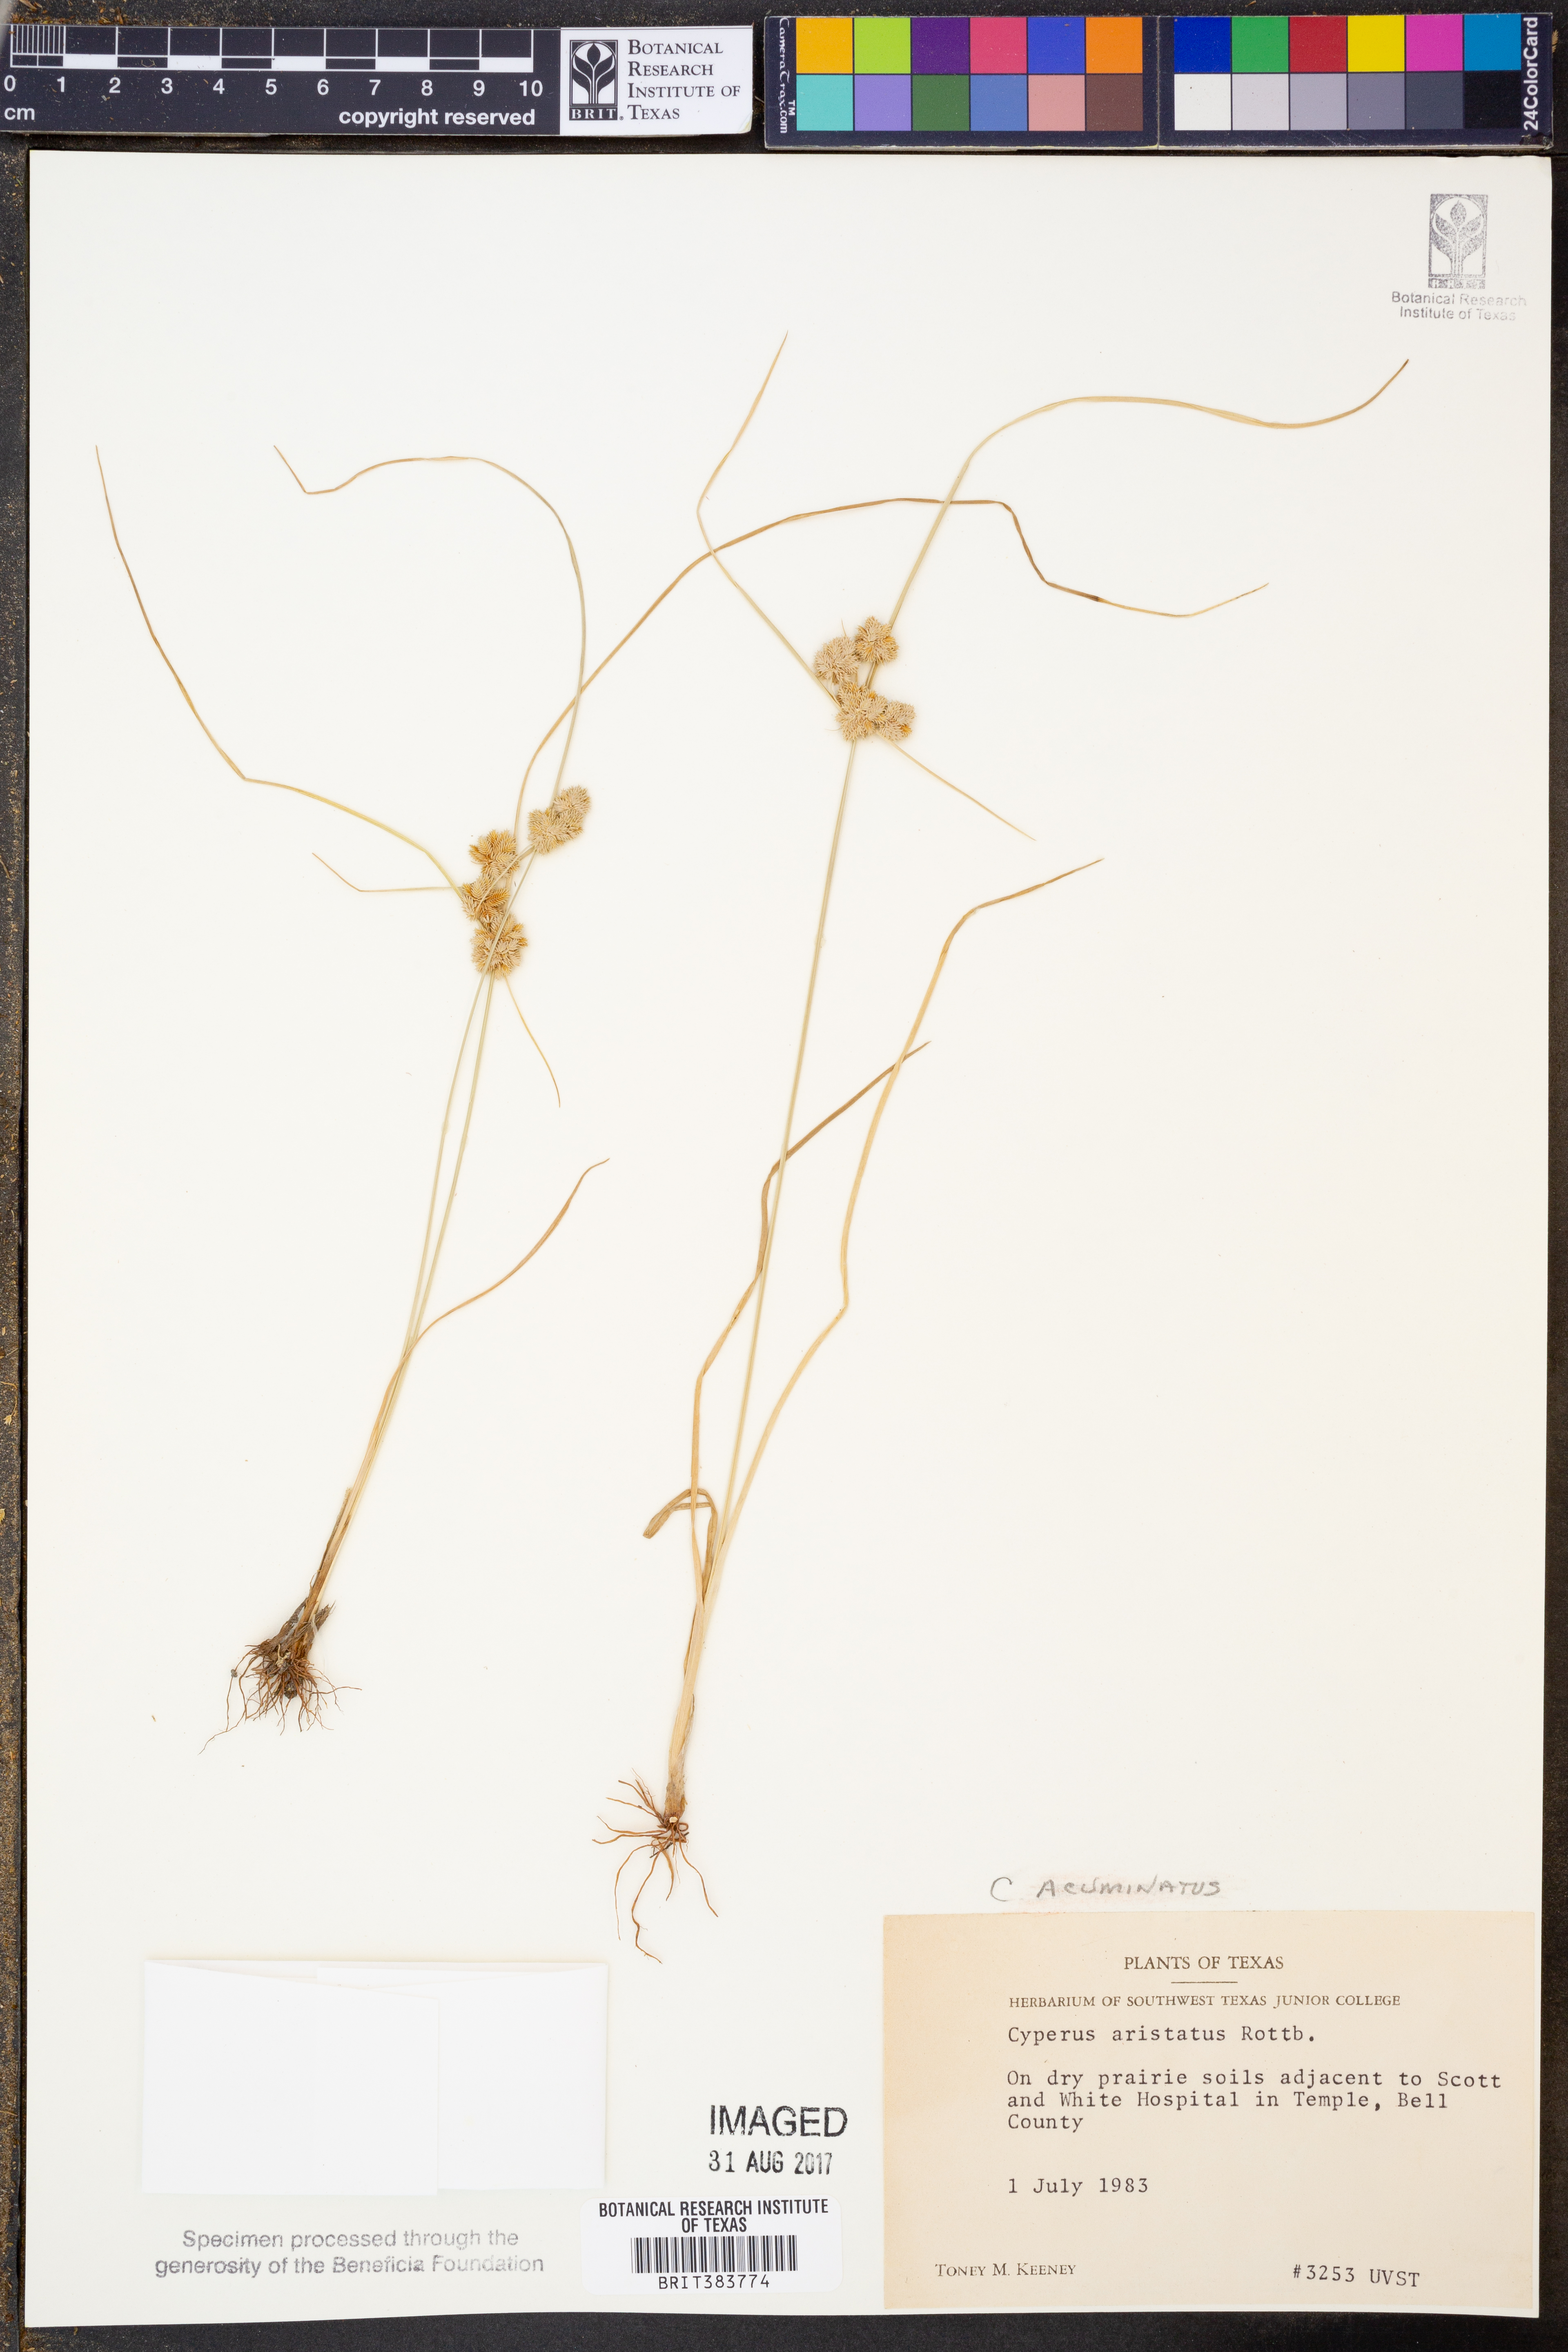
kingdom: Plantae
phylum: Tracheophyta
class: Liliopsida
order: Poales
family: Cyperaceae
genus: Cyperus
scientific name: Cyperus acuminatus
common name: Short-pointed cyperus
